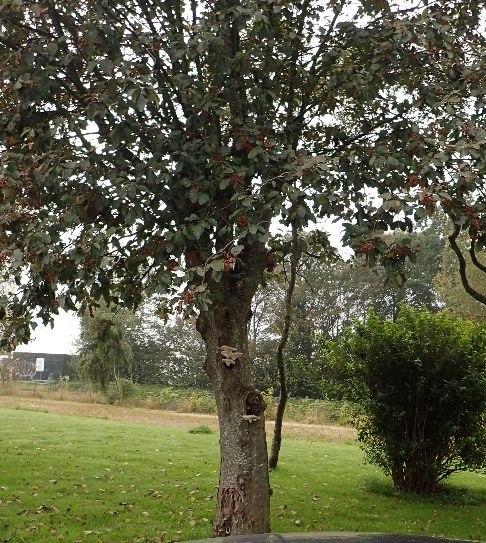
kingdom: Fungi
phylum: Basidiomycota
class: Agaricomycetes
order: Agaricales
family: Pleurotaceae
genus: Pleurotus
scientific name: Pleurotus dryinus
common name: korkagtig østershat
